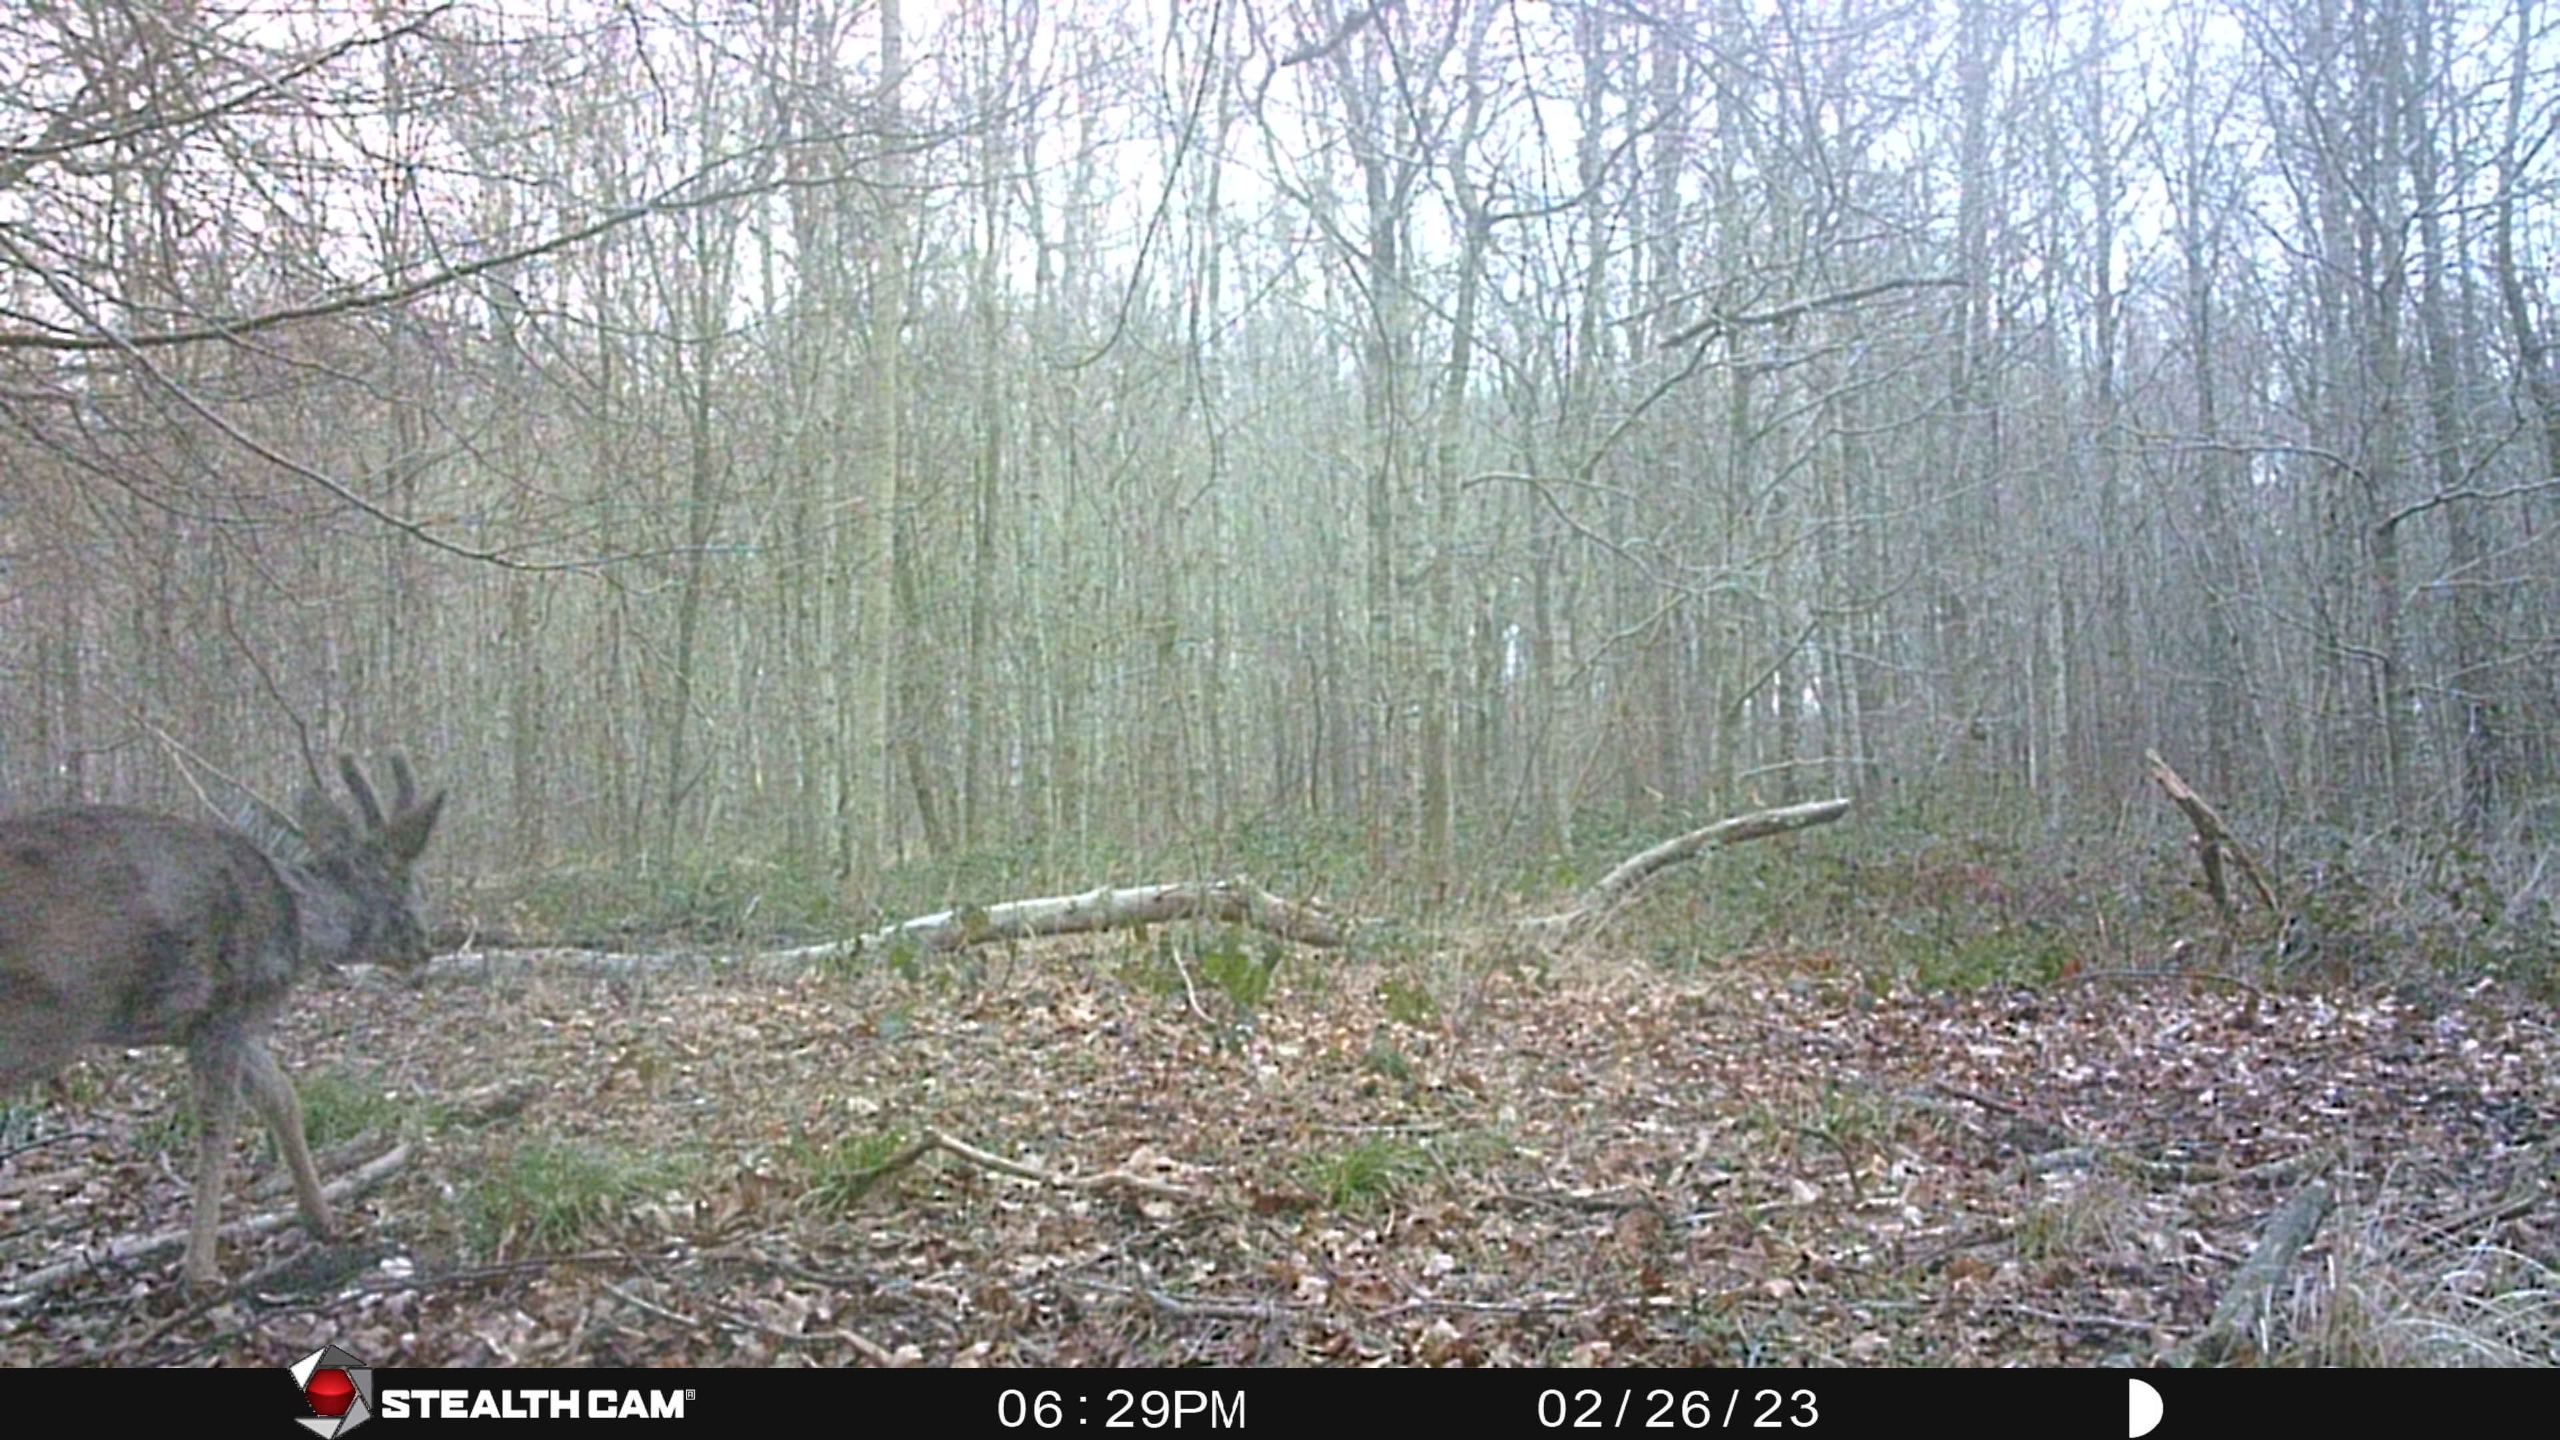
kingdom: Animalia
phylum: Chordata
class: Mammalia
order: Artiodactyla
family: Cervidae
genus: Capreolus
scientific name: Capreolus capreolus
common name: Rådyr
